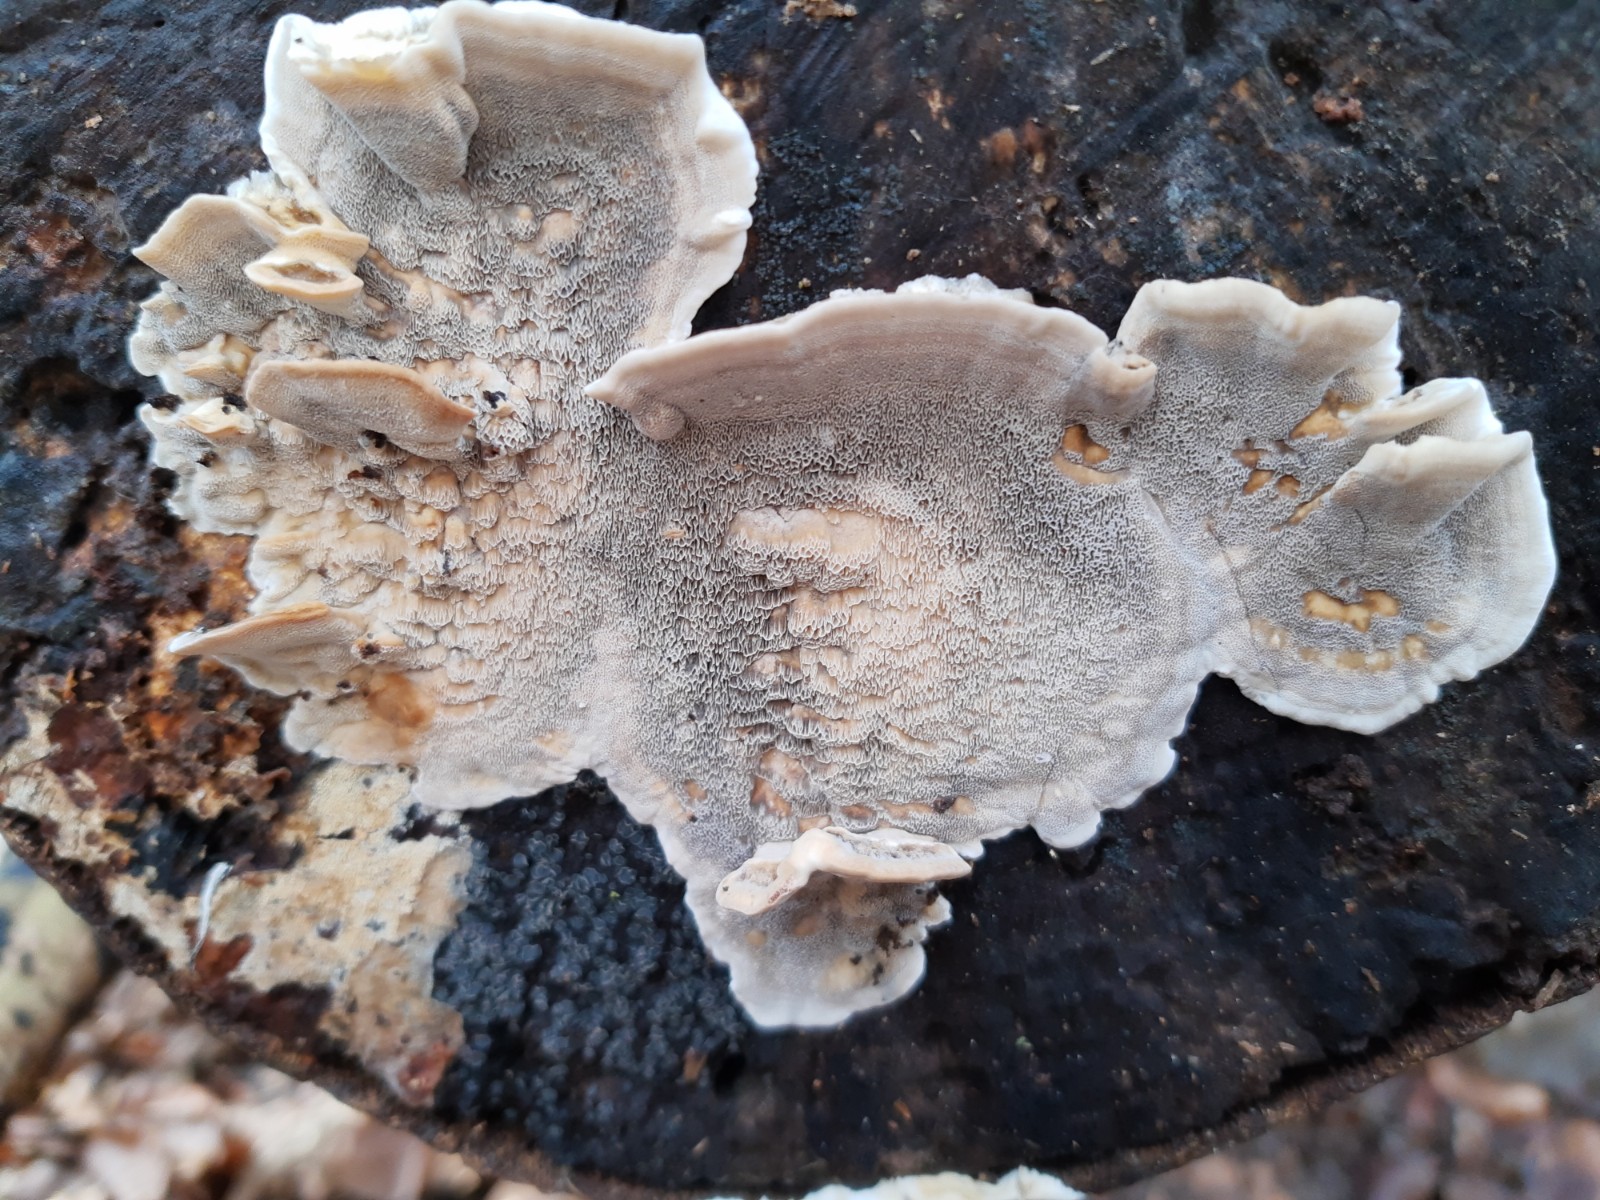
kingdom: Fungi
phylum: Basidiomycota
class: Agaricomycetes
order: Polyporales
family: Phanerochaetaceae
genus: Bjerkandera
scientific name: Bjerkandera adusta
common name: sveden sodporesvamp
